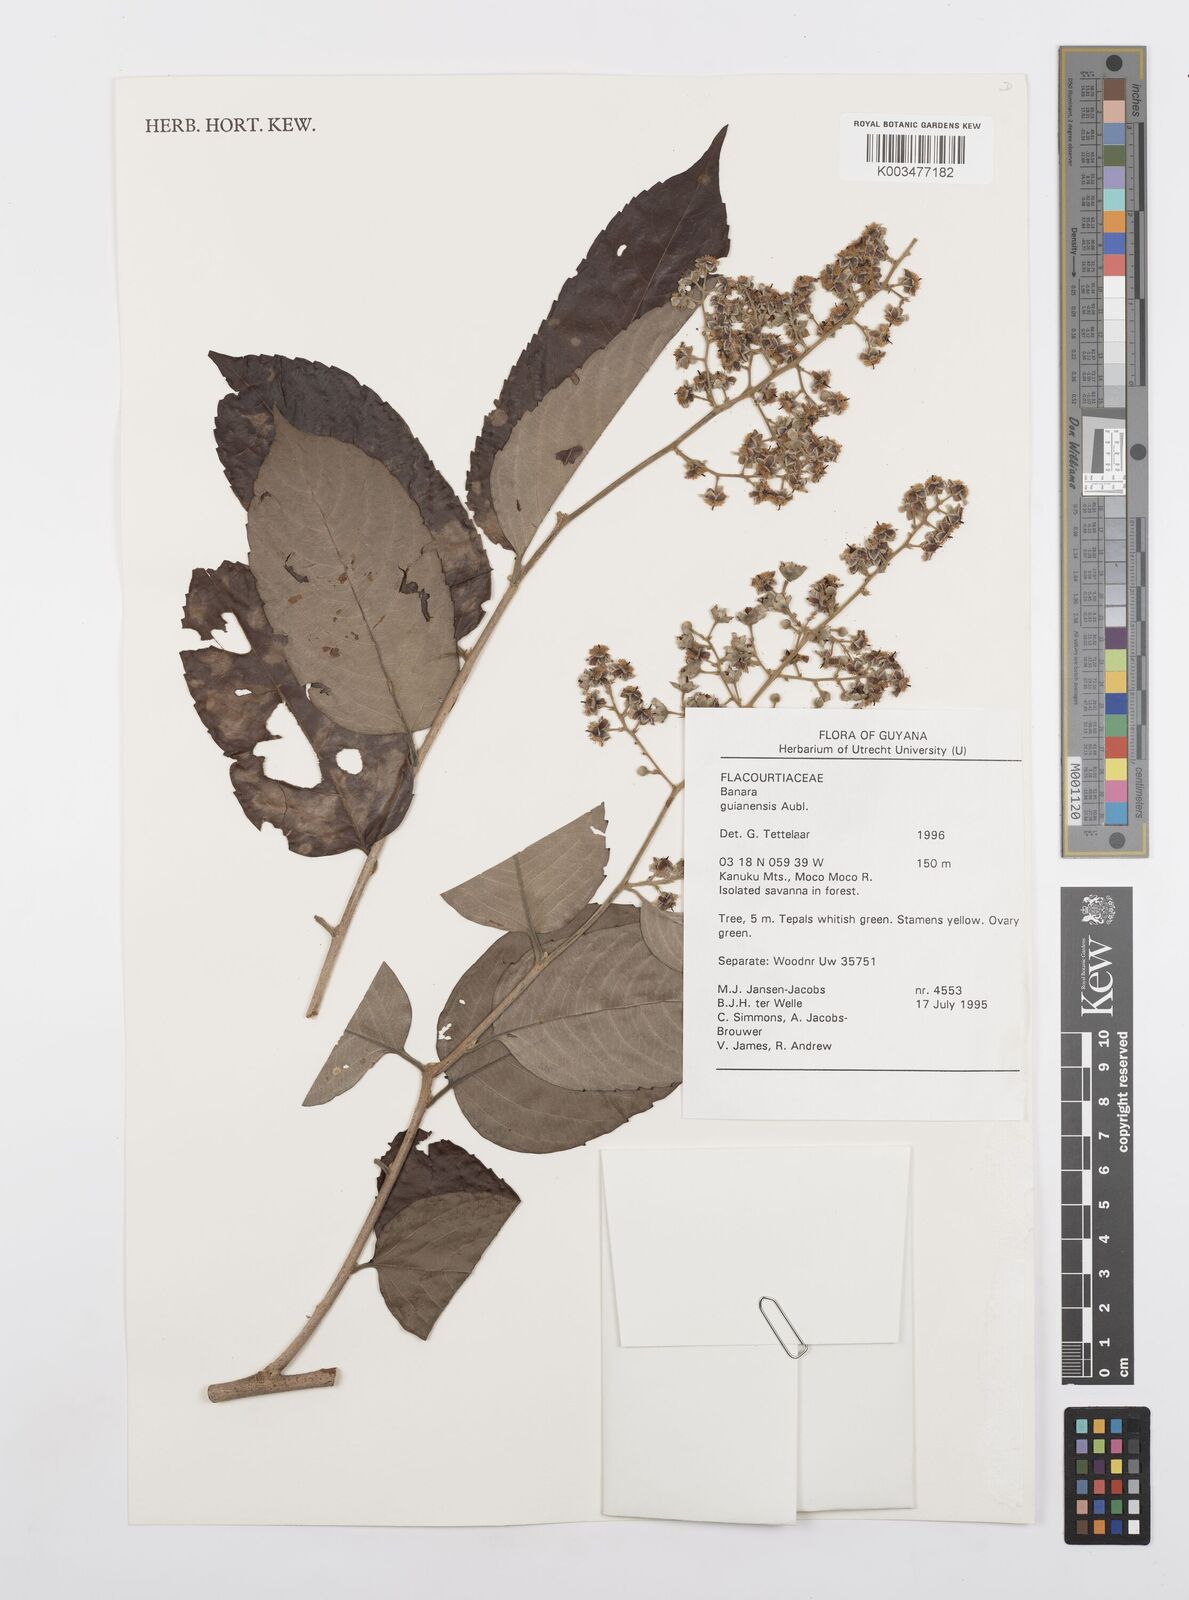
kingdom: Plantae
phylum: Tracheophyta
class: Magnoliopsida
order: Malpighiales
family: Salicaceae
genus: Banara
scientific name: Banara guianensis
